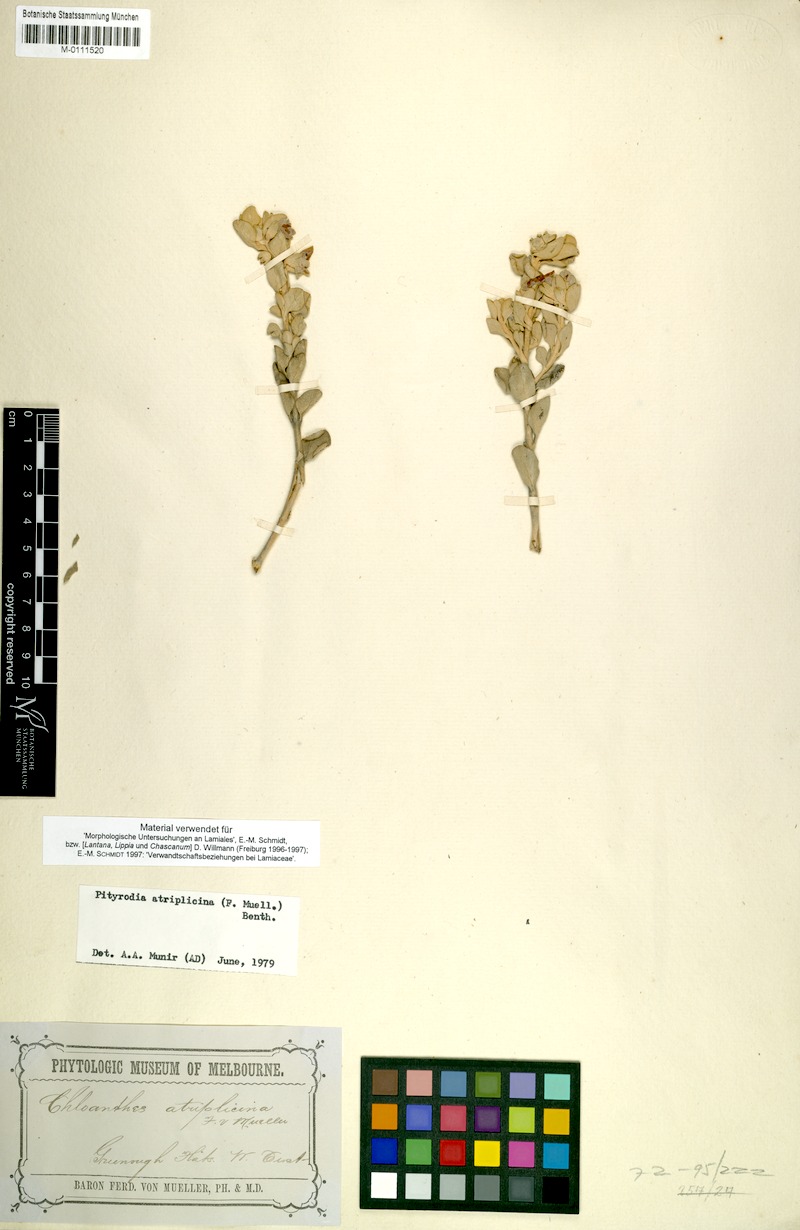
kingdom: Plantae
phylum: Tracheophyta
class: Magnoliopsida
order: Lamiales
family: Lamiaceae
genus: Quoya
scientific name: Quoya atriplicina
